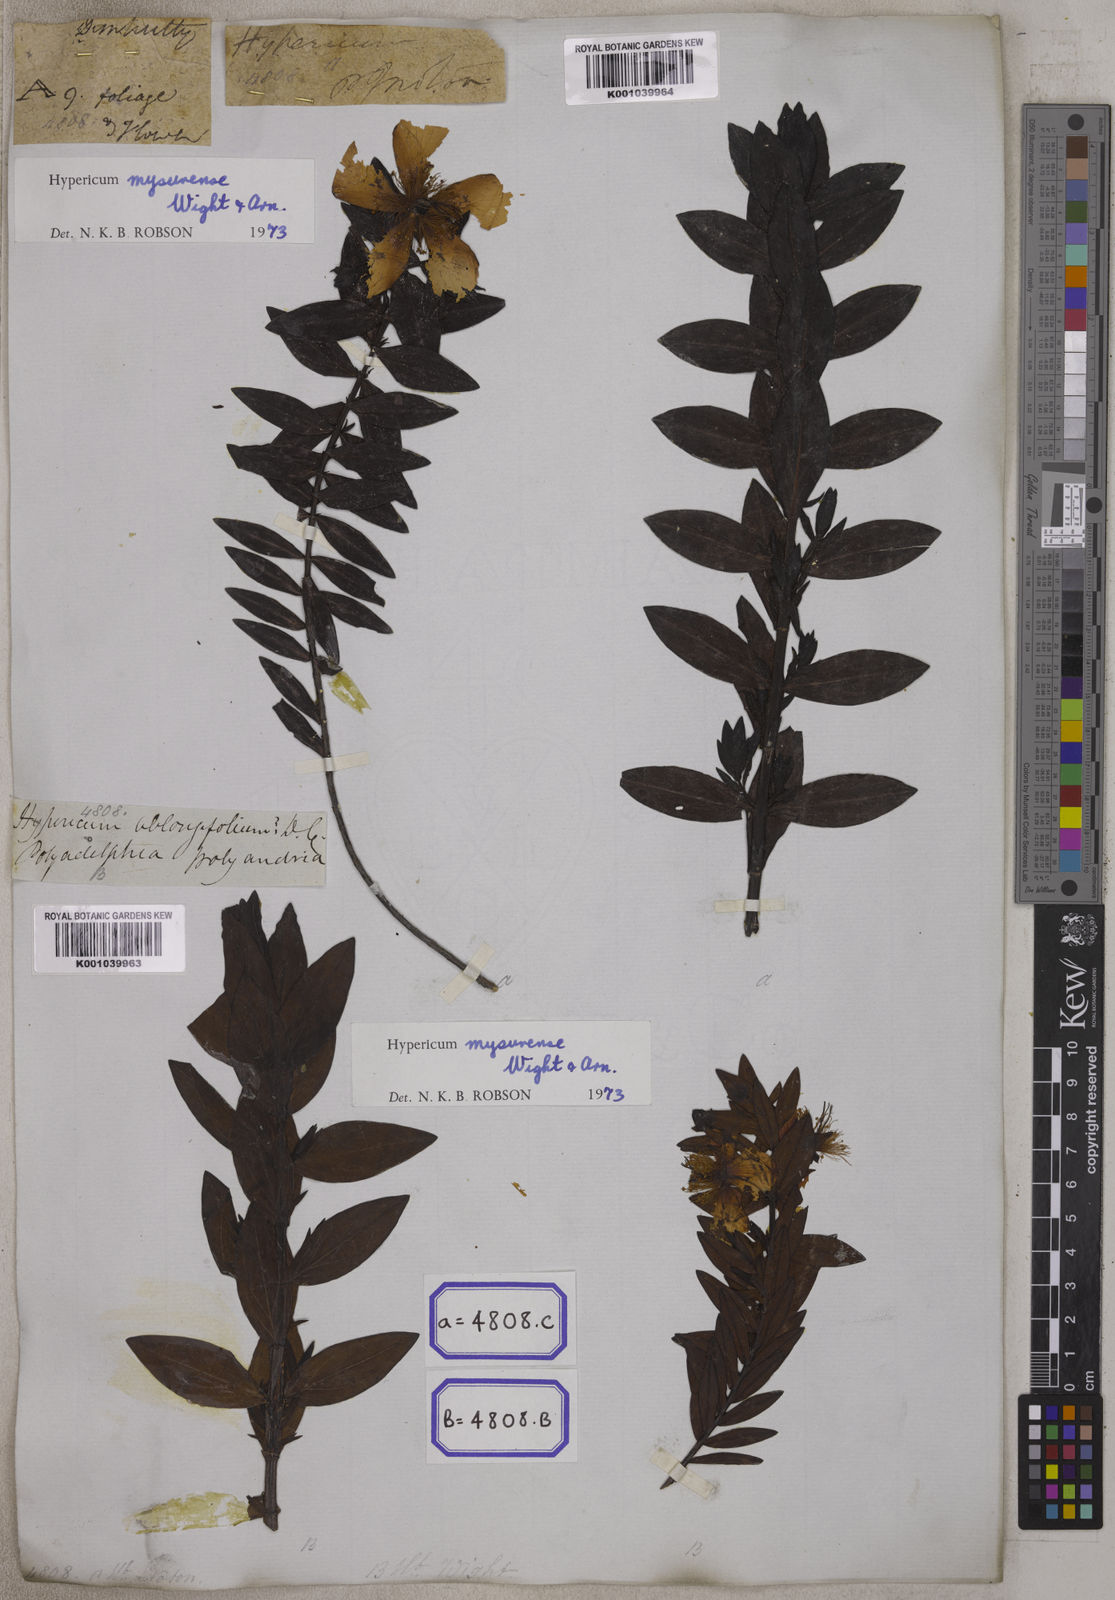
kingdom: Plantae
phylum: Tracheophyta
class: Magnoliopsida
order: Malpighiales
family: Hypericaceae
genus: Hypericum
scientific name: Hypericum
